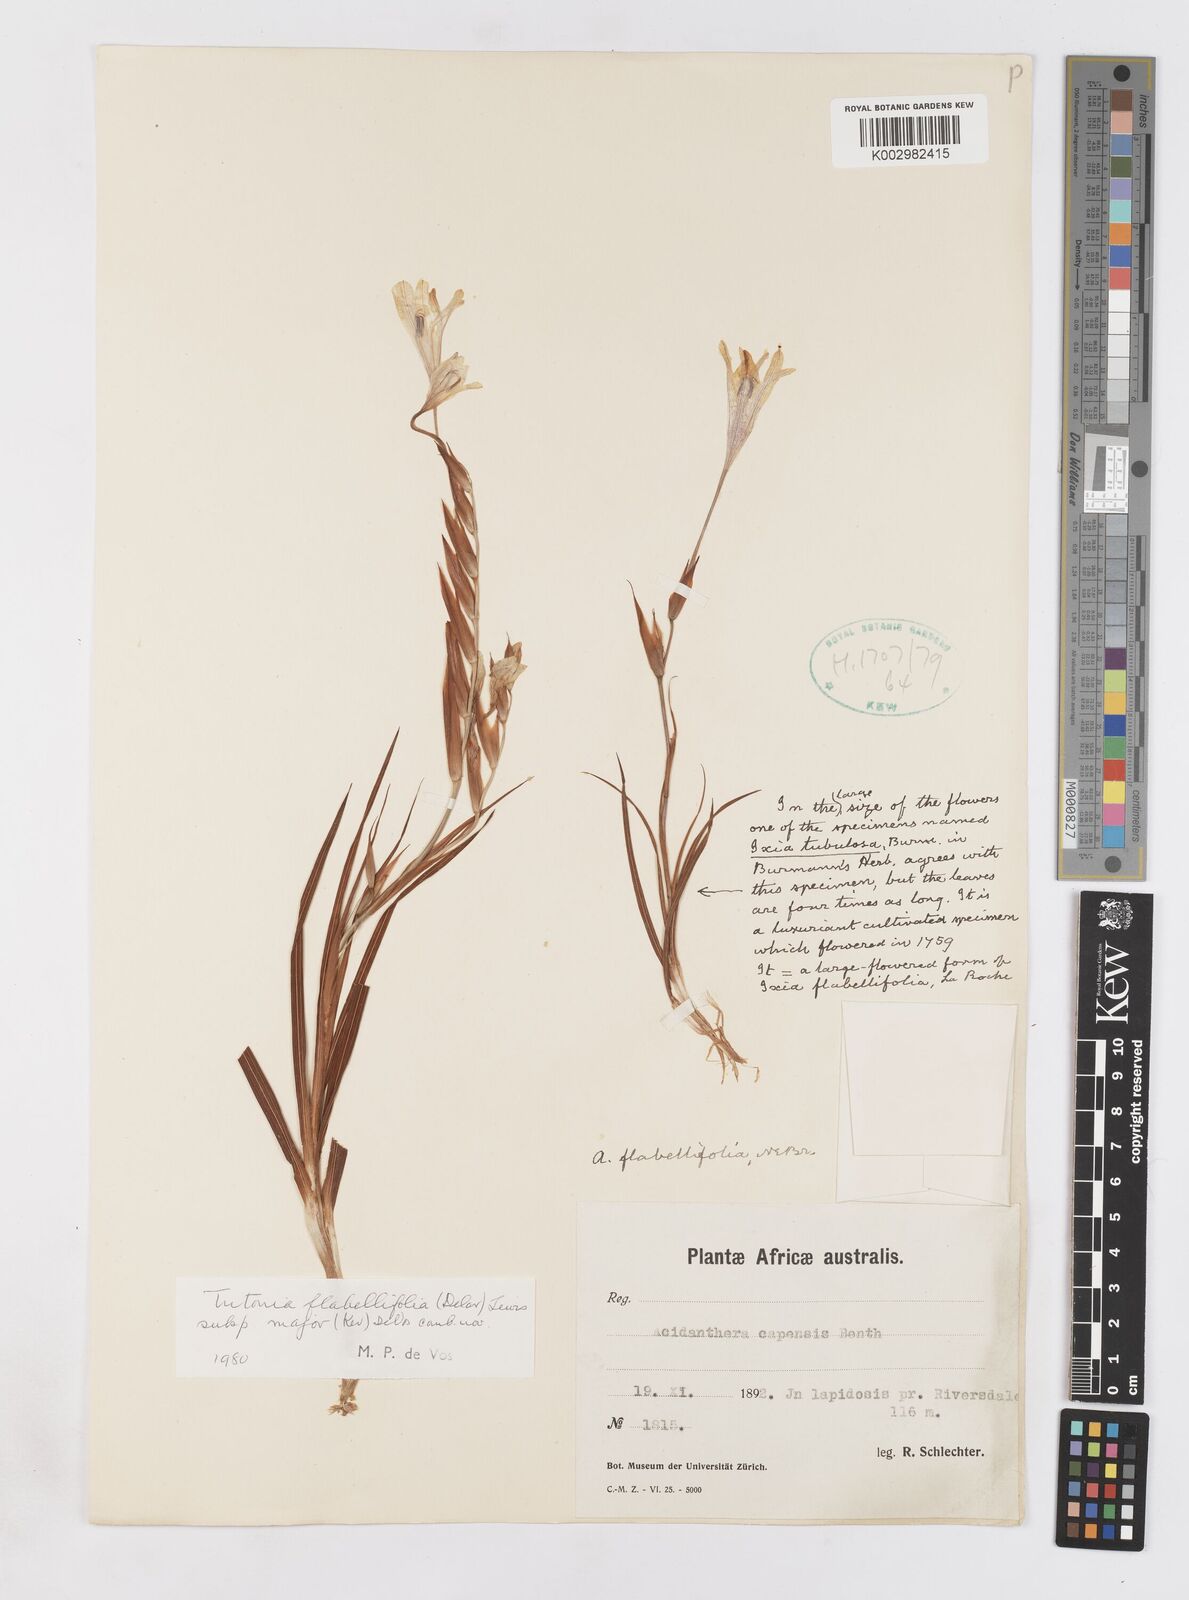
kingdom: Plantae
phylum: Tracheophyta
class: Liliopsida
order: Asparagales
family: Iridaceae
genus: Tritonia
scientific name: Tritonia
